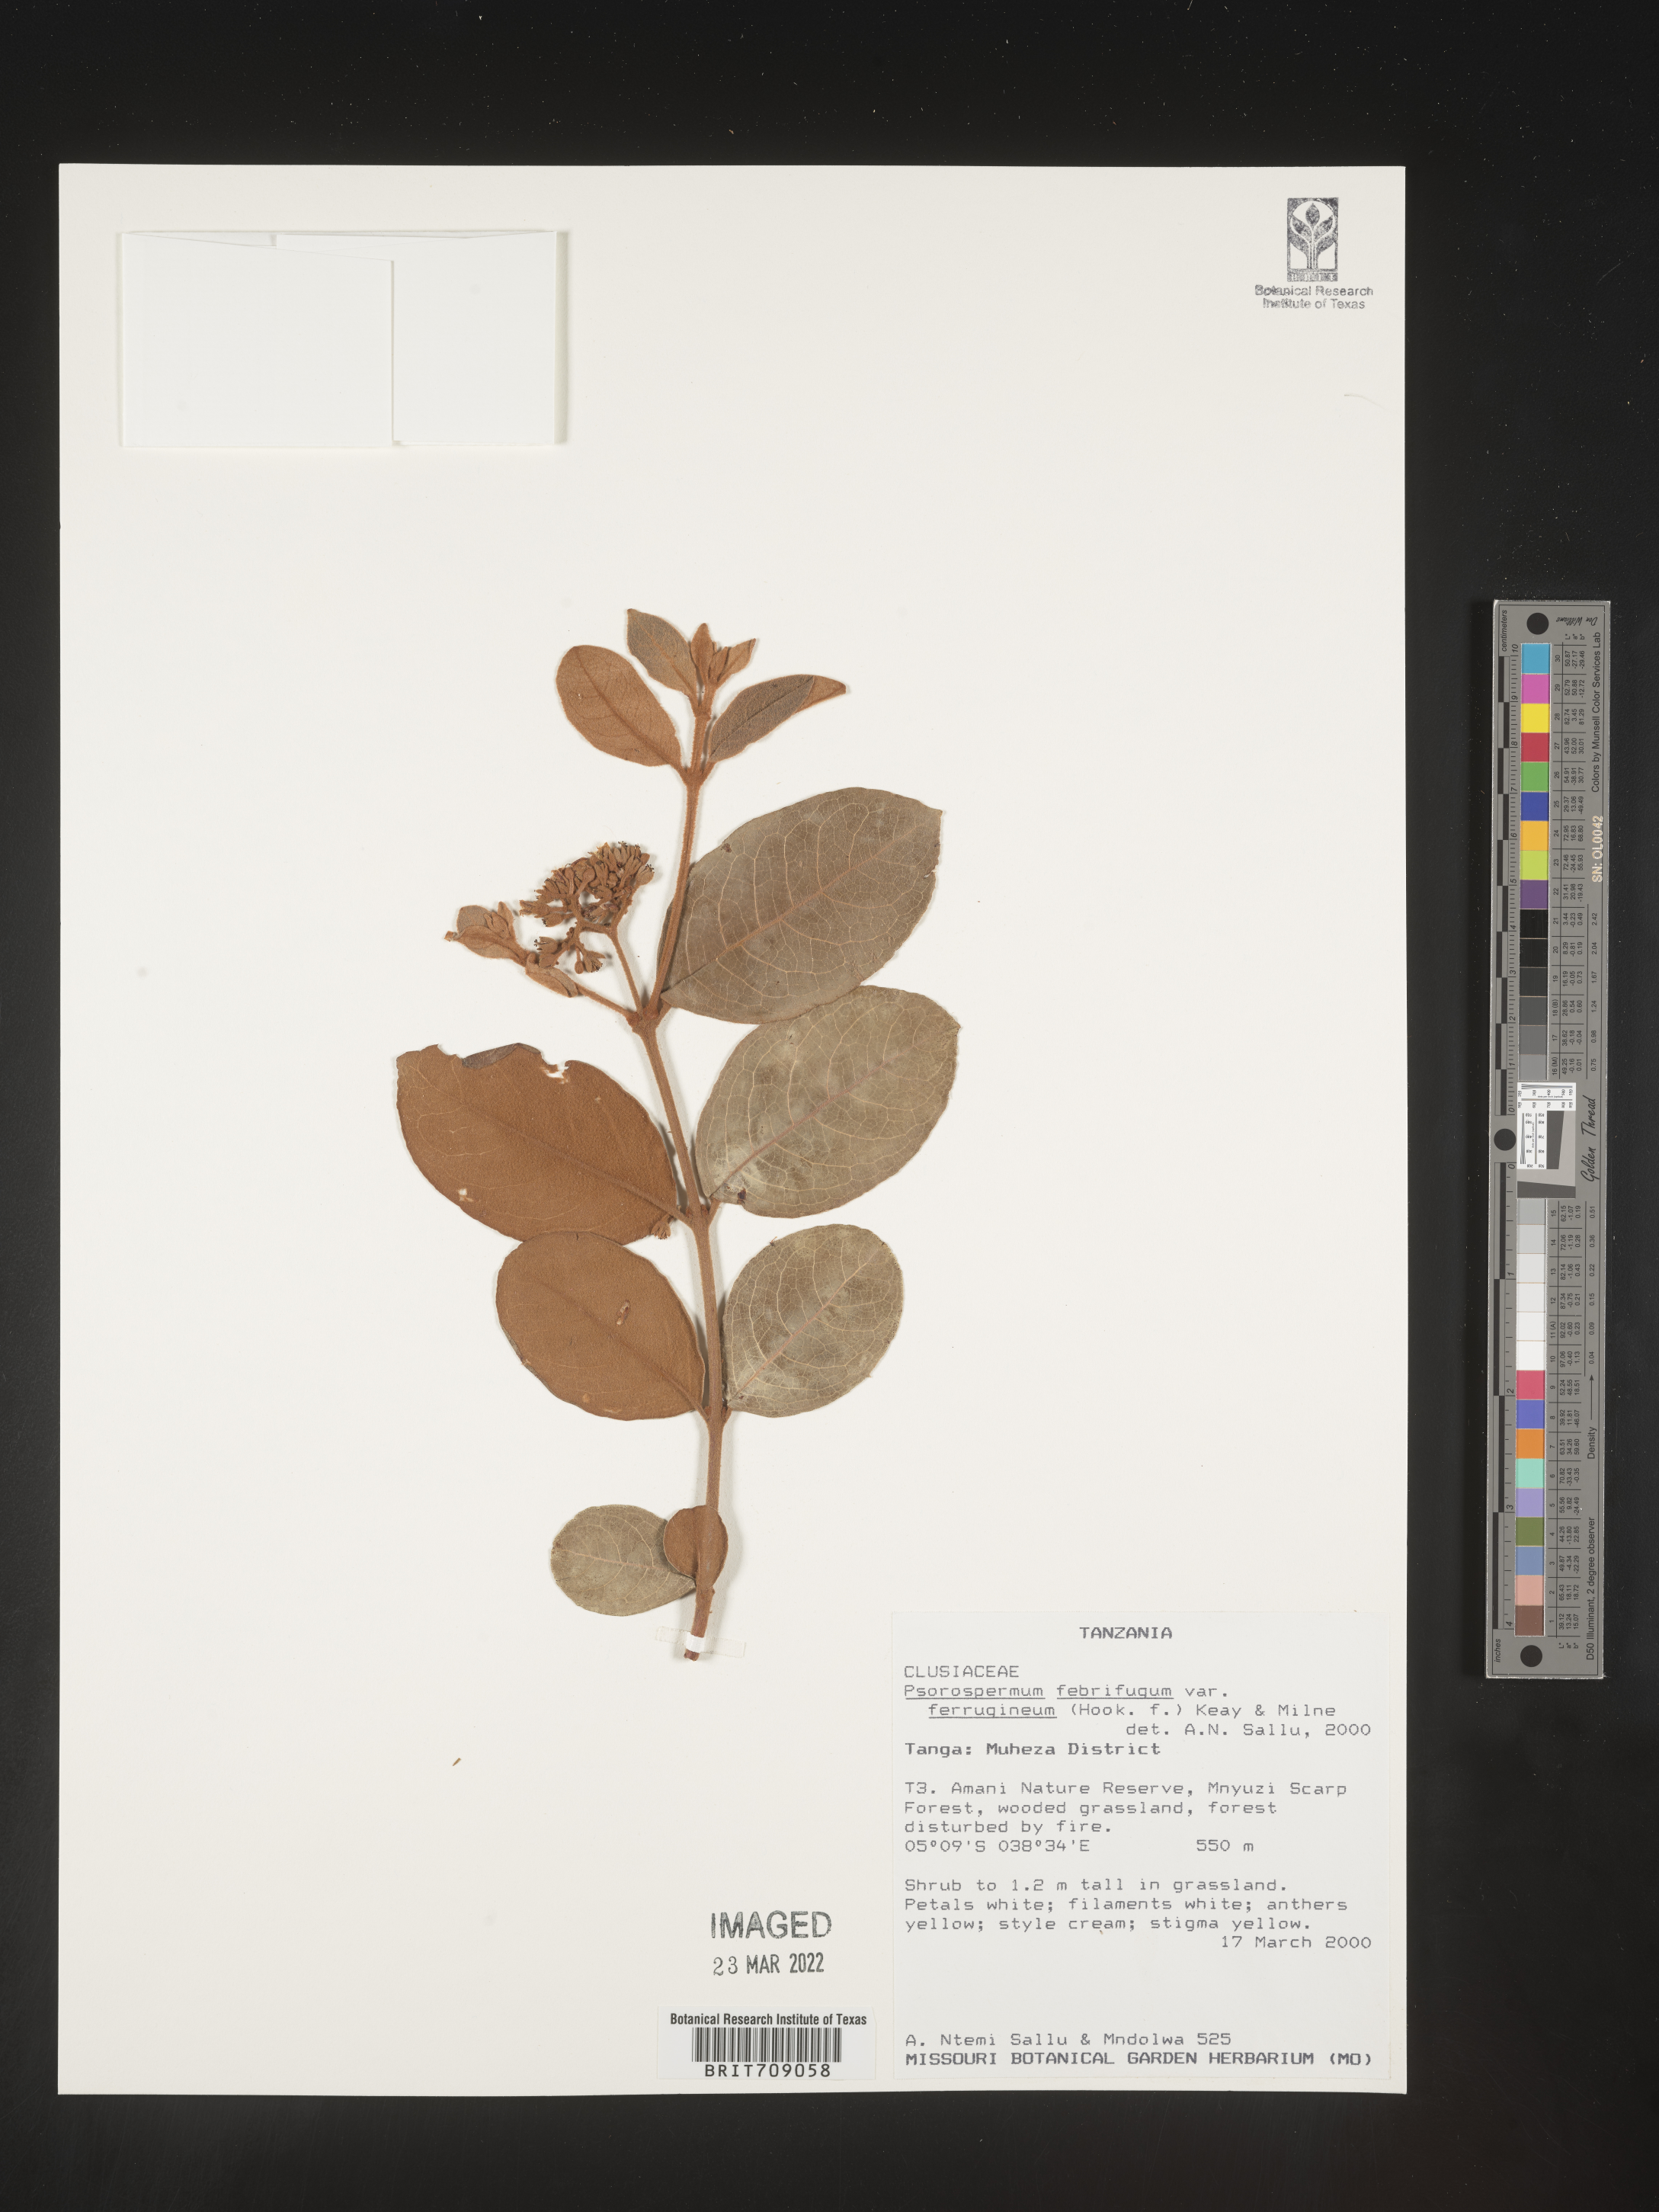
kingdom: Plantae
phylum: Tracheophyta
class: Magnoliopsida
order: Malpighiales
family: Hypericaceae
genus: Psorospermum
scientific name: Psorospermum
